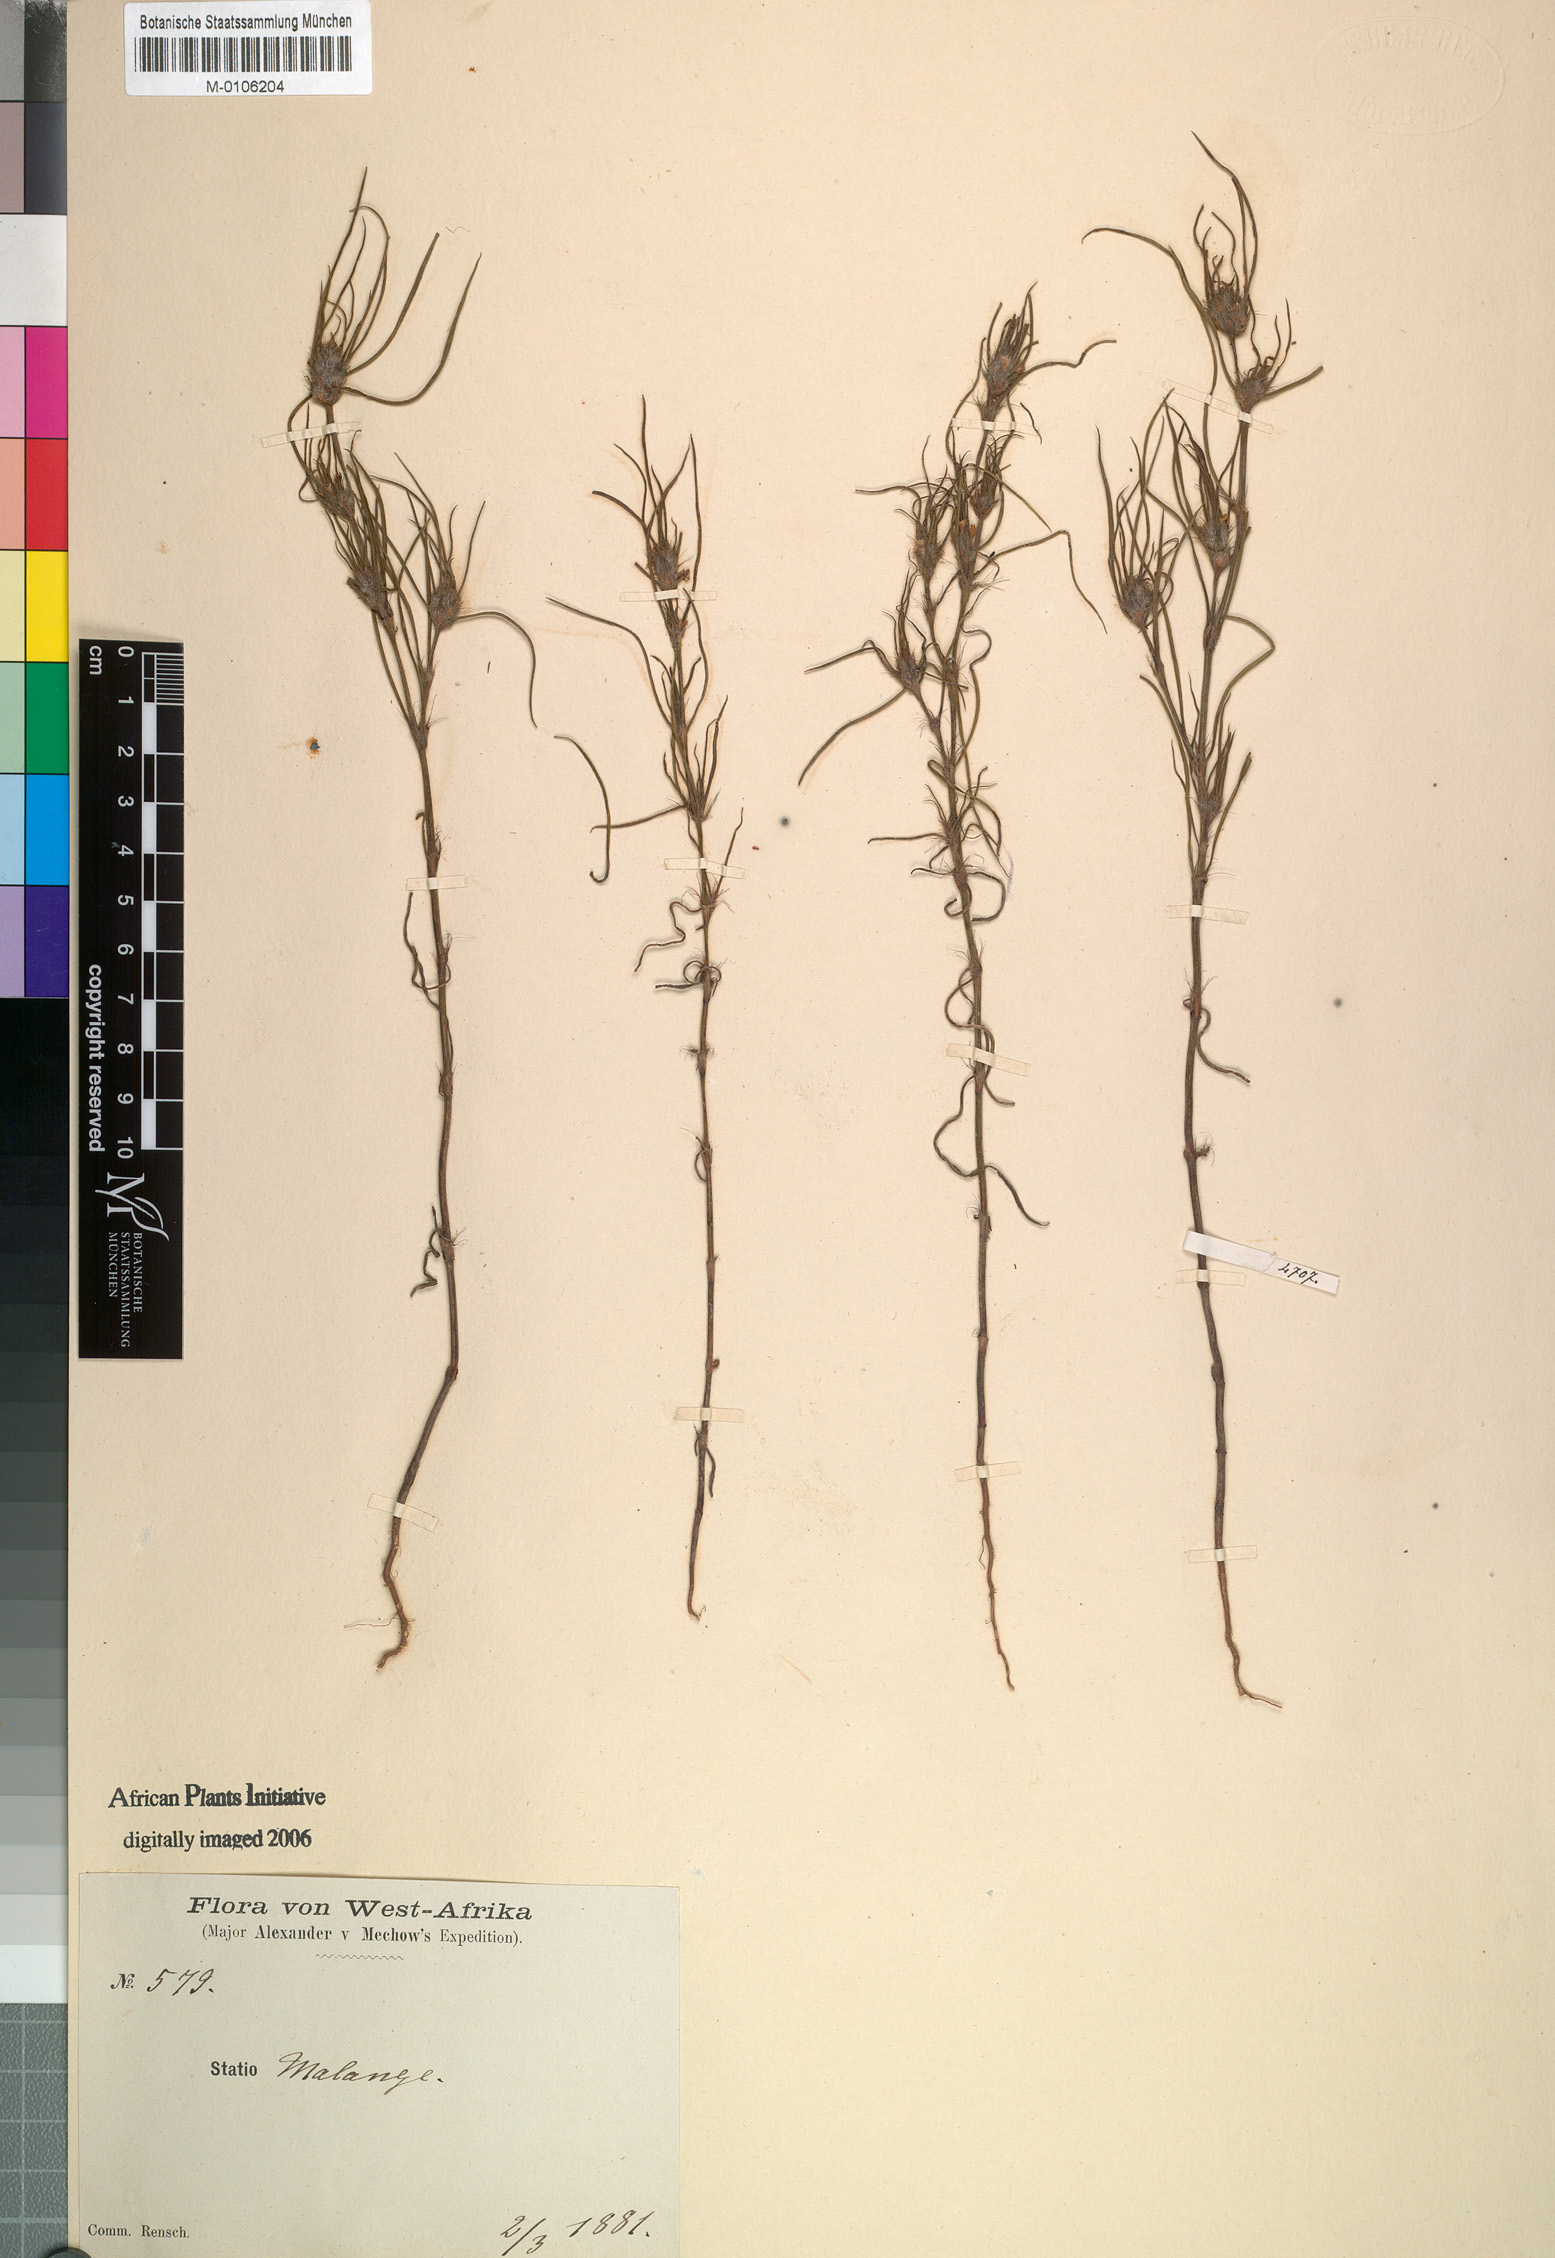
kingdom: Plantae
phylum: Tracheophyta
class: Magnoliopsida
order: Gentianales
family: Rubiaceae
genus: Spermacoce
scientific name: Spermacoce subvulgata
